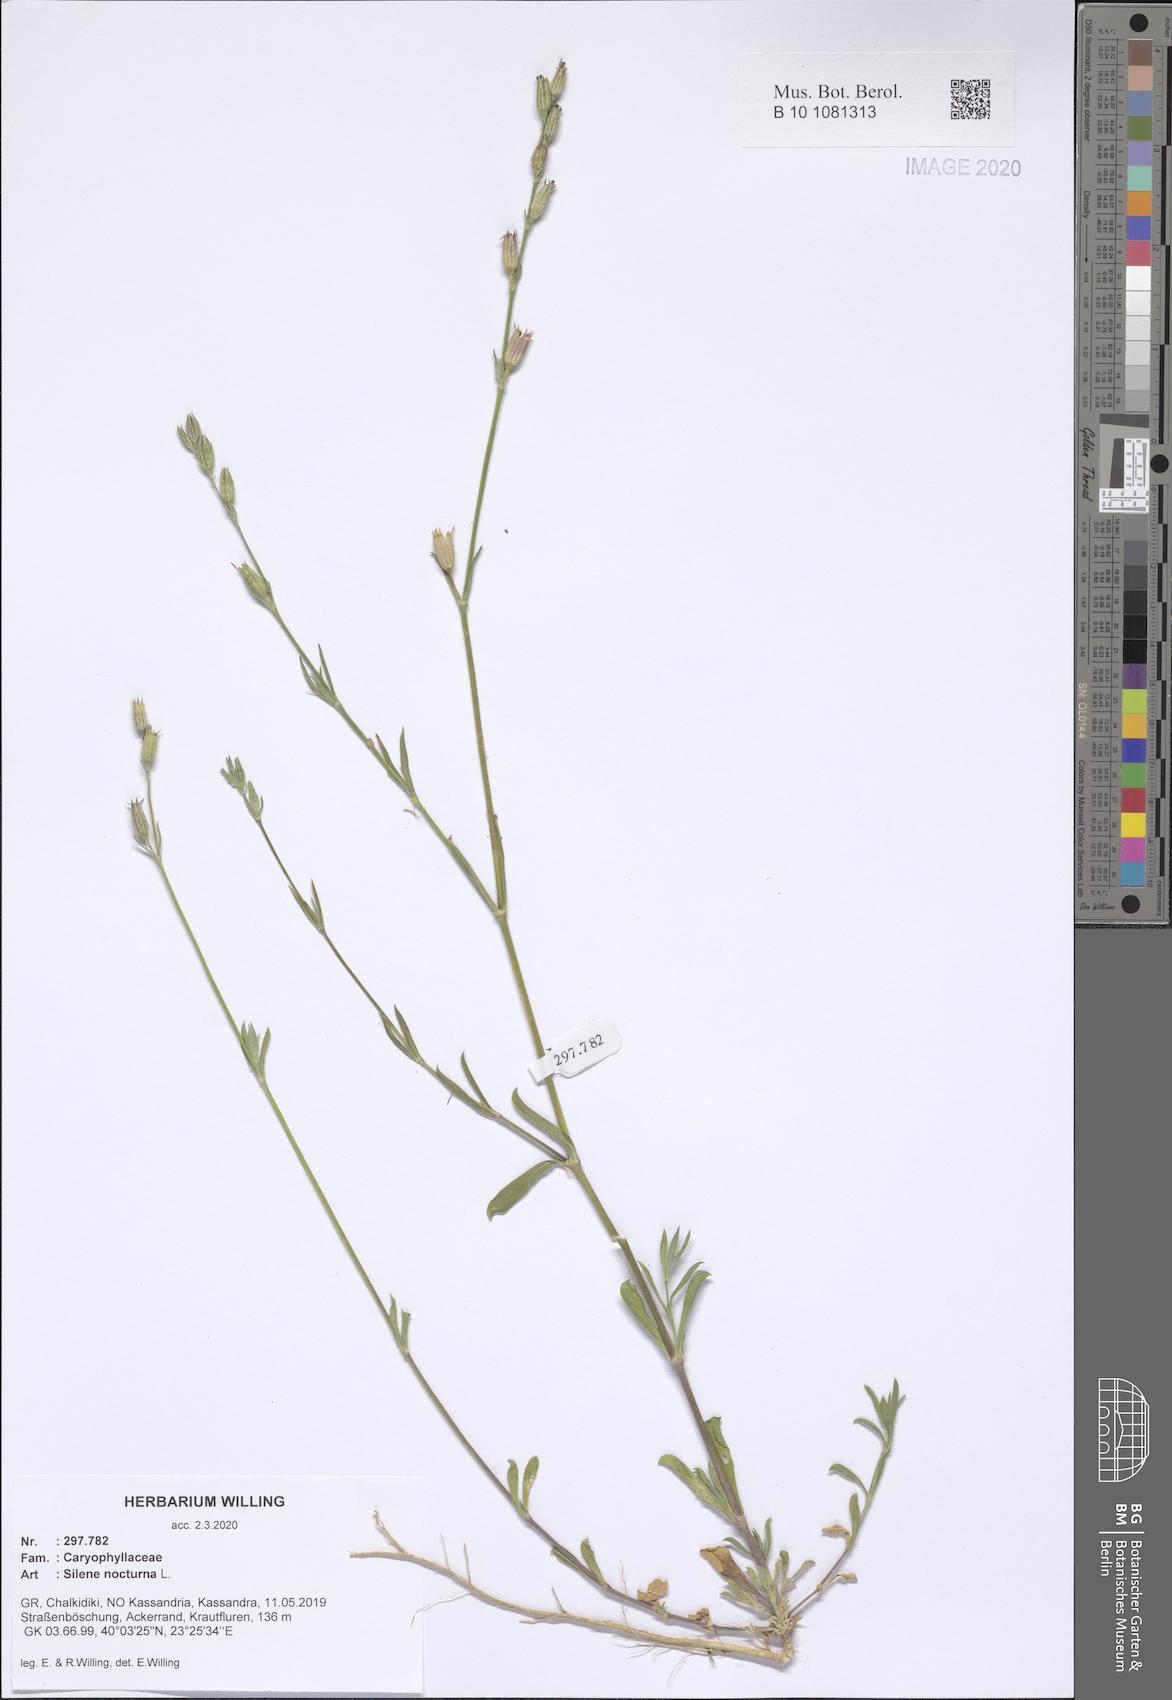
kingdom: Plantae
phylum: Tracheophyta
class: Magnoliopsida
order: Caryophyllales
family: Caryophyllaceae
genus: Silene
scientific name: Silene nocturna
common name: Mediterranean catchfly
